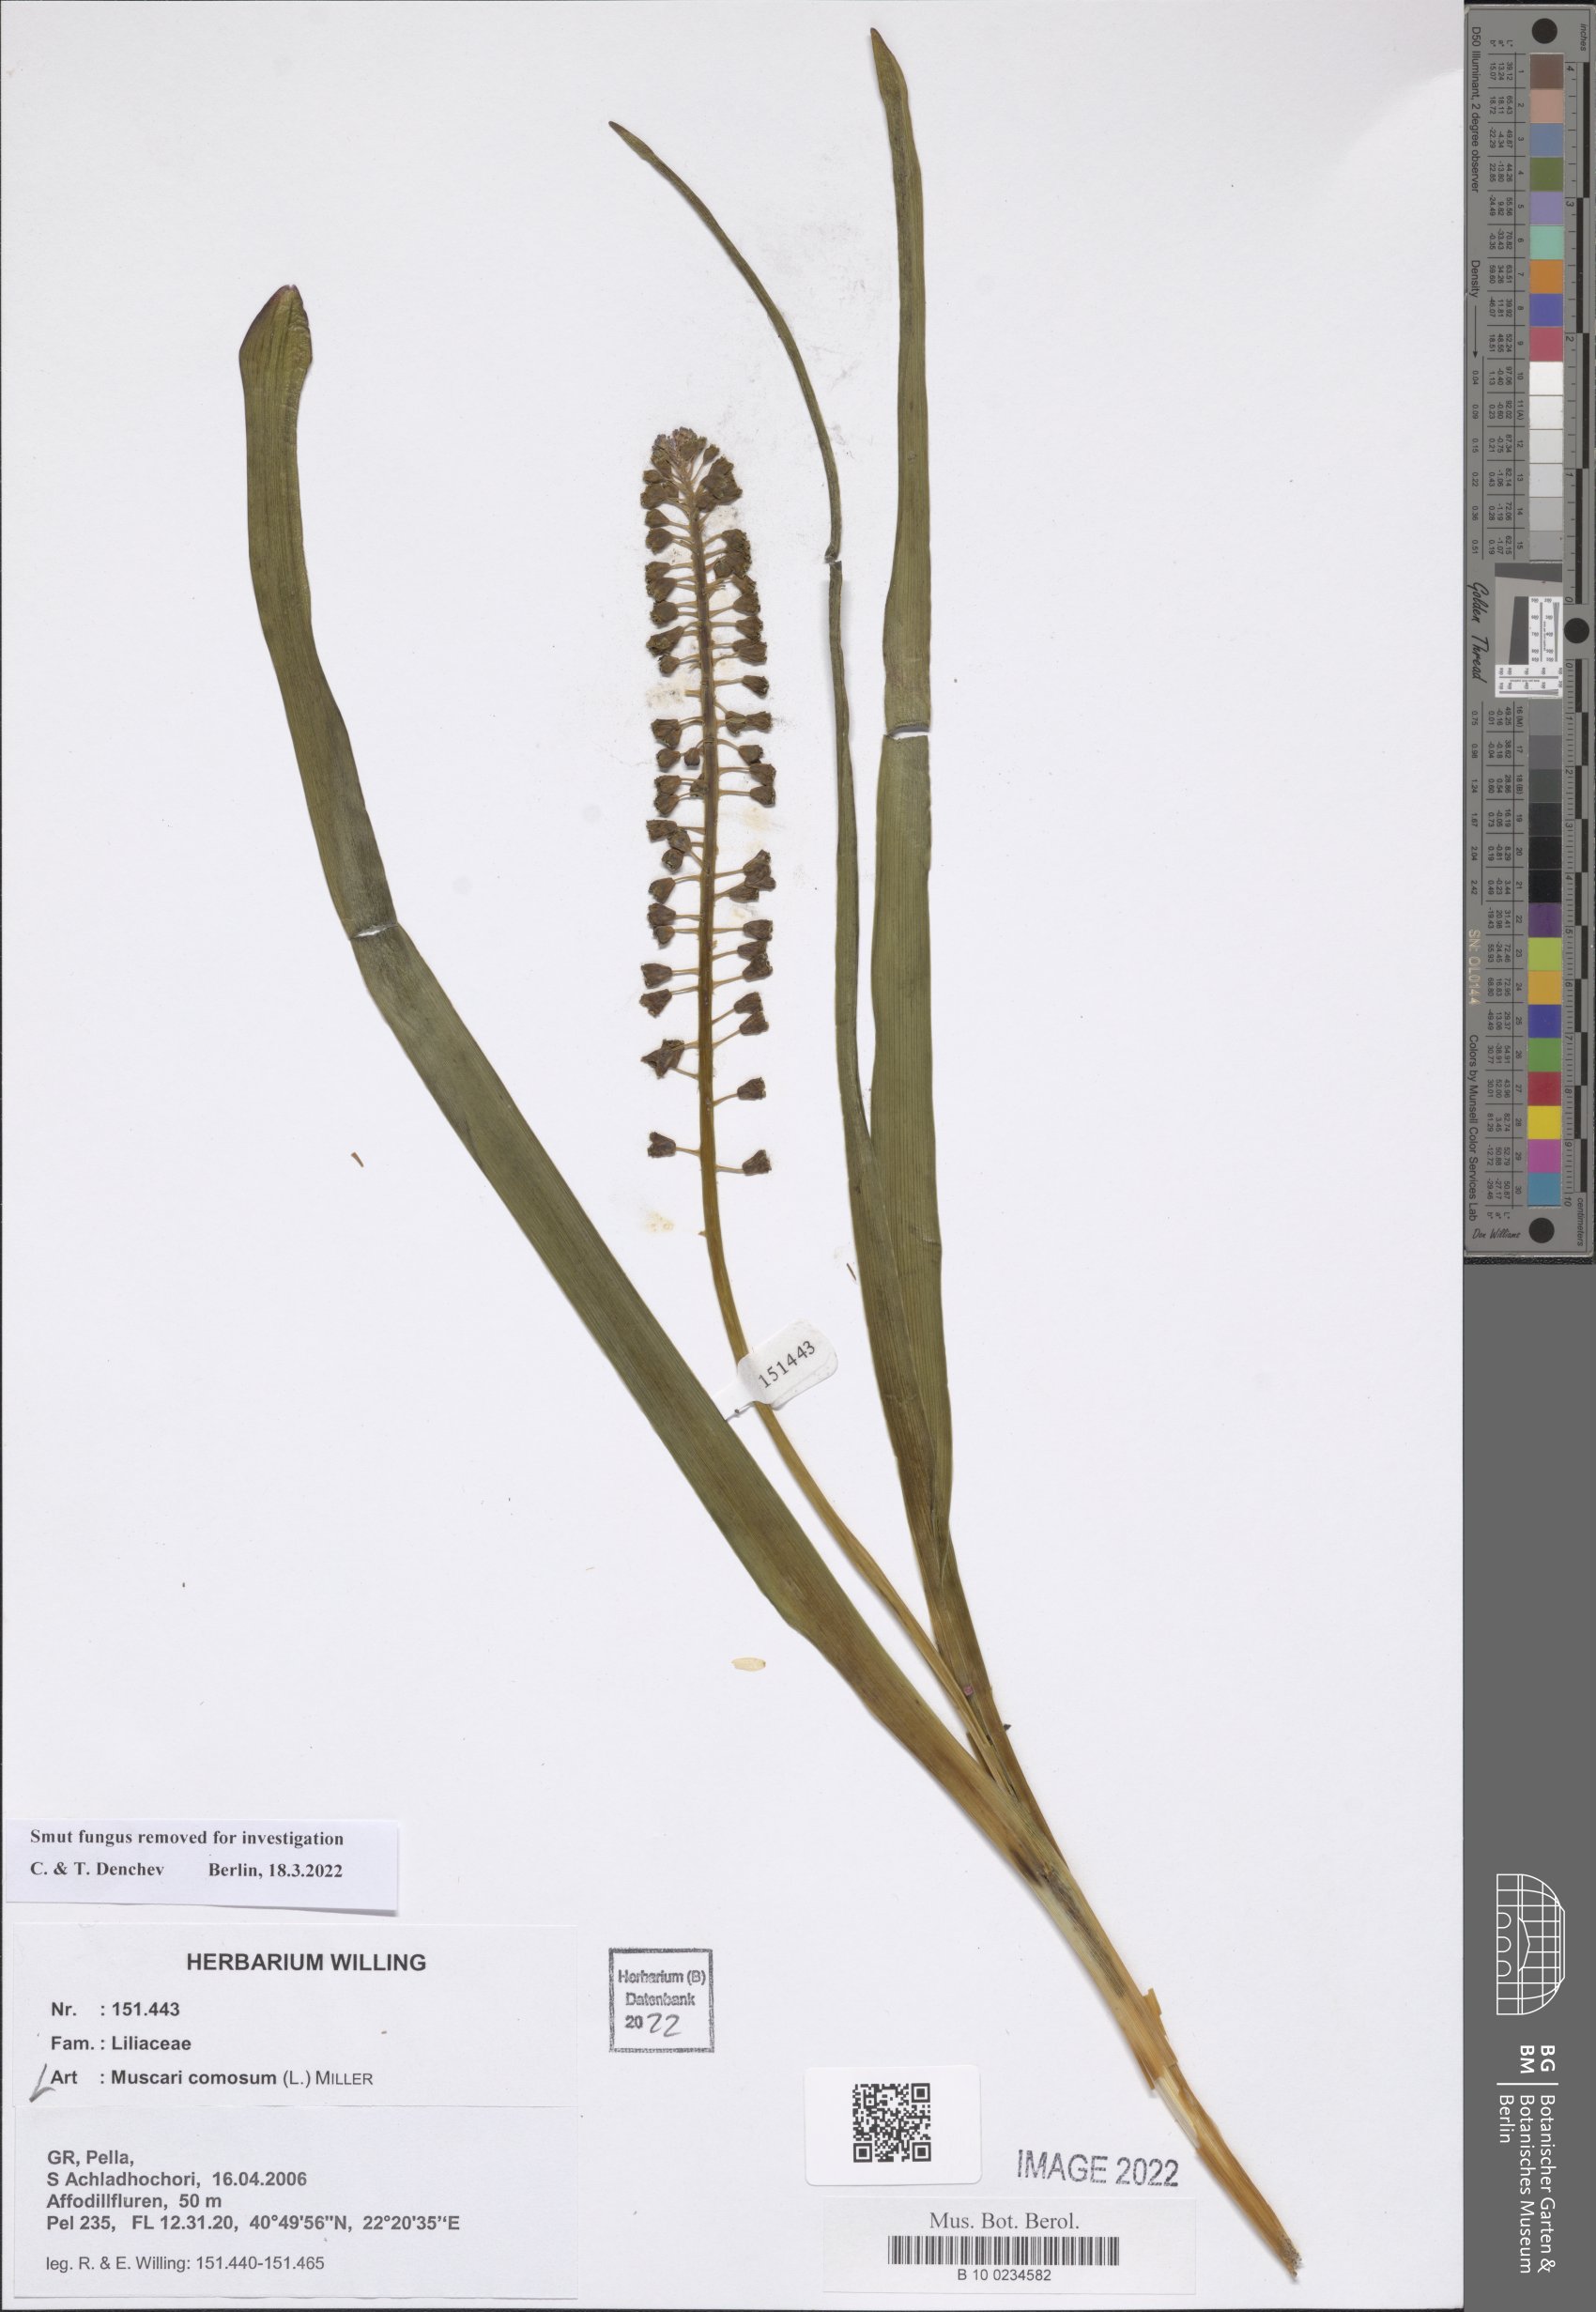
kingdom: Plantae
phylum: Tracheophyta
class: Liliopsida
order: Asparagales
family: Asparagaceae
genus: Muscari
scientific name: Muscari comosum
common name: Tassel hyacinth
